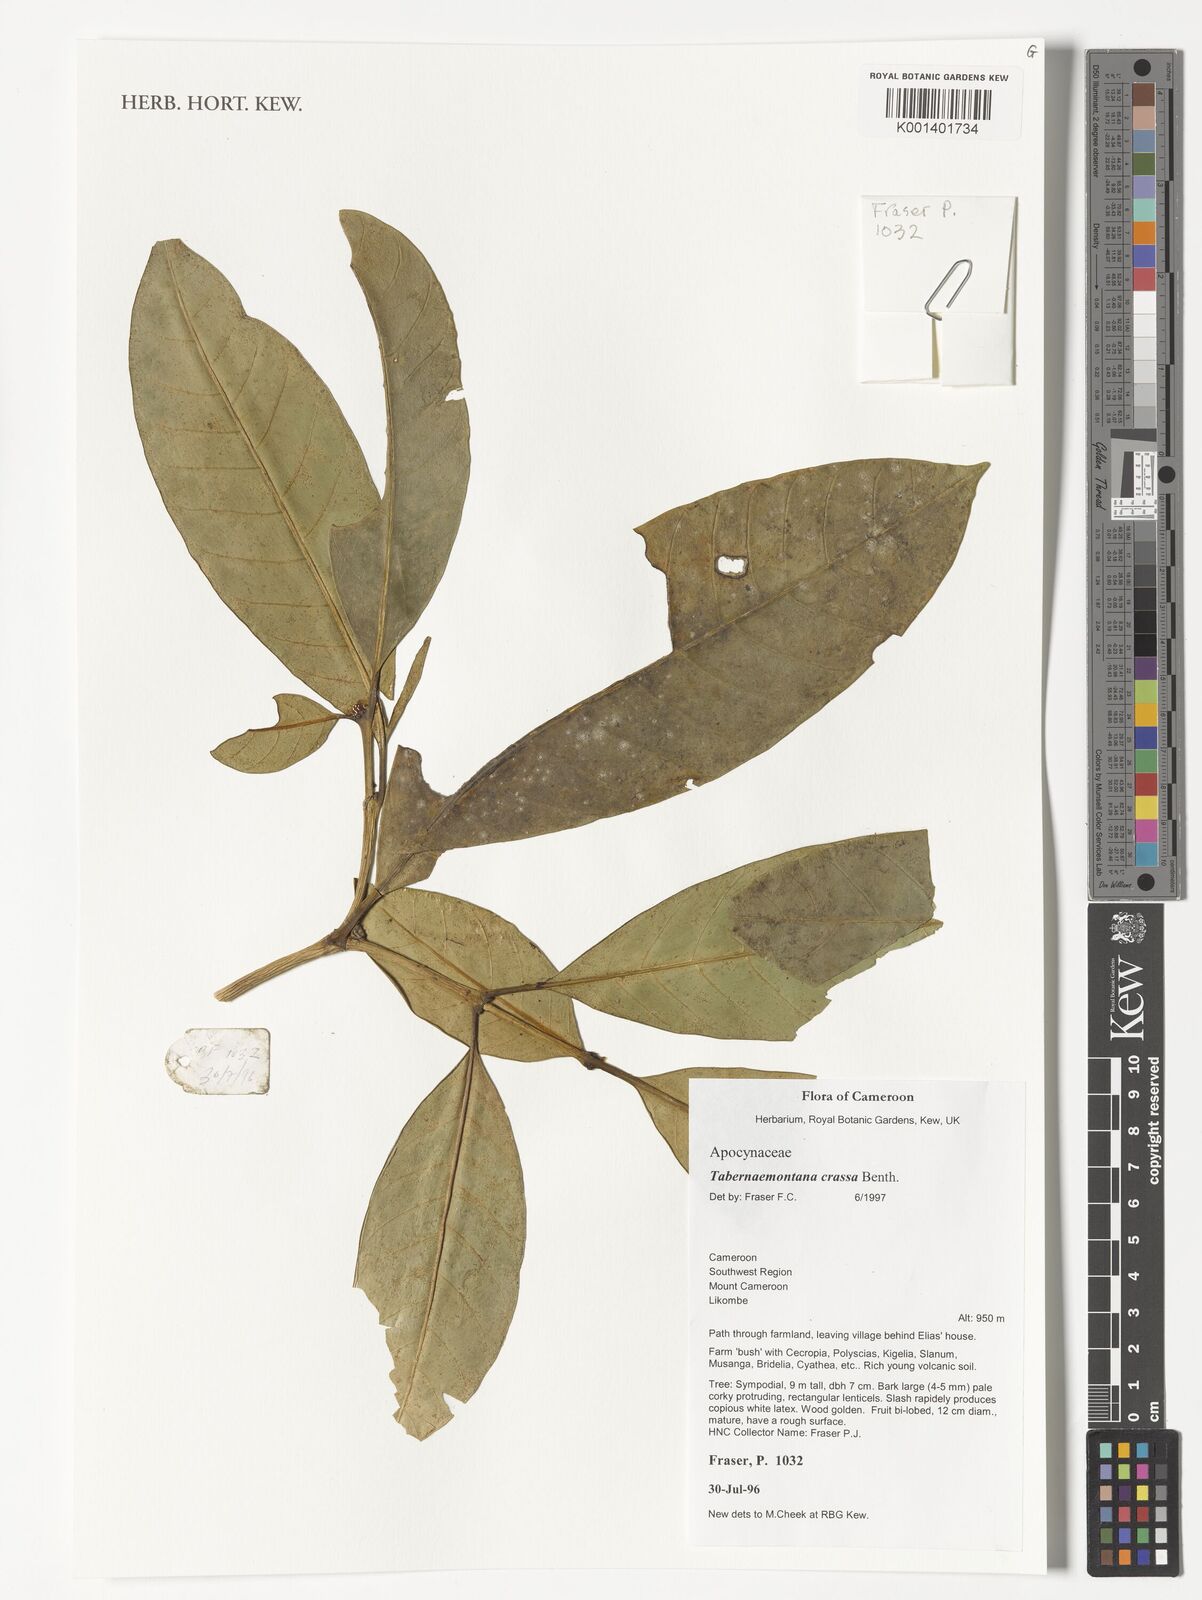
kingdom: Plantae
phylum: Tracheophyta
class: Magnoliopsida
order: Gentianales
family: Apocynaceae
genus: Tabernaemontana
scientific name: Tabernaemontana crassa
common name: Adam's-apple-flower
